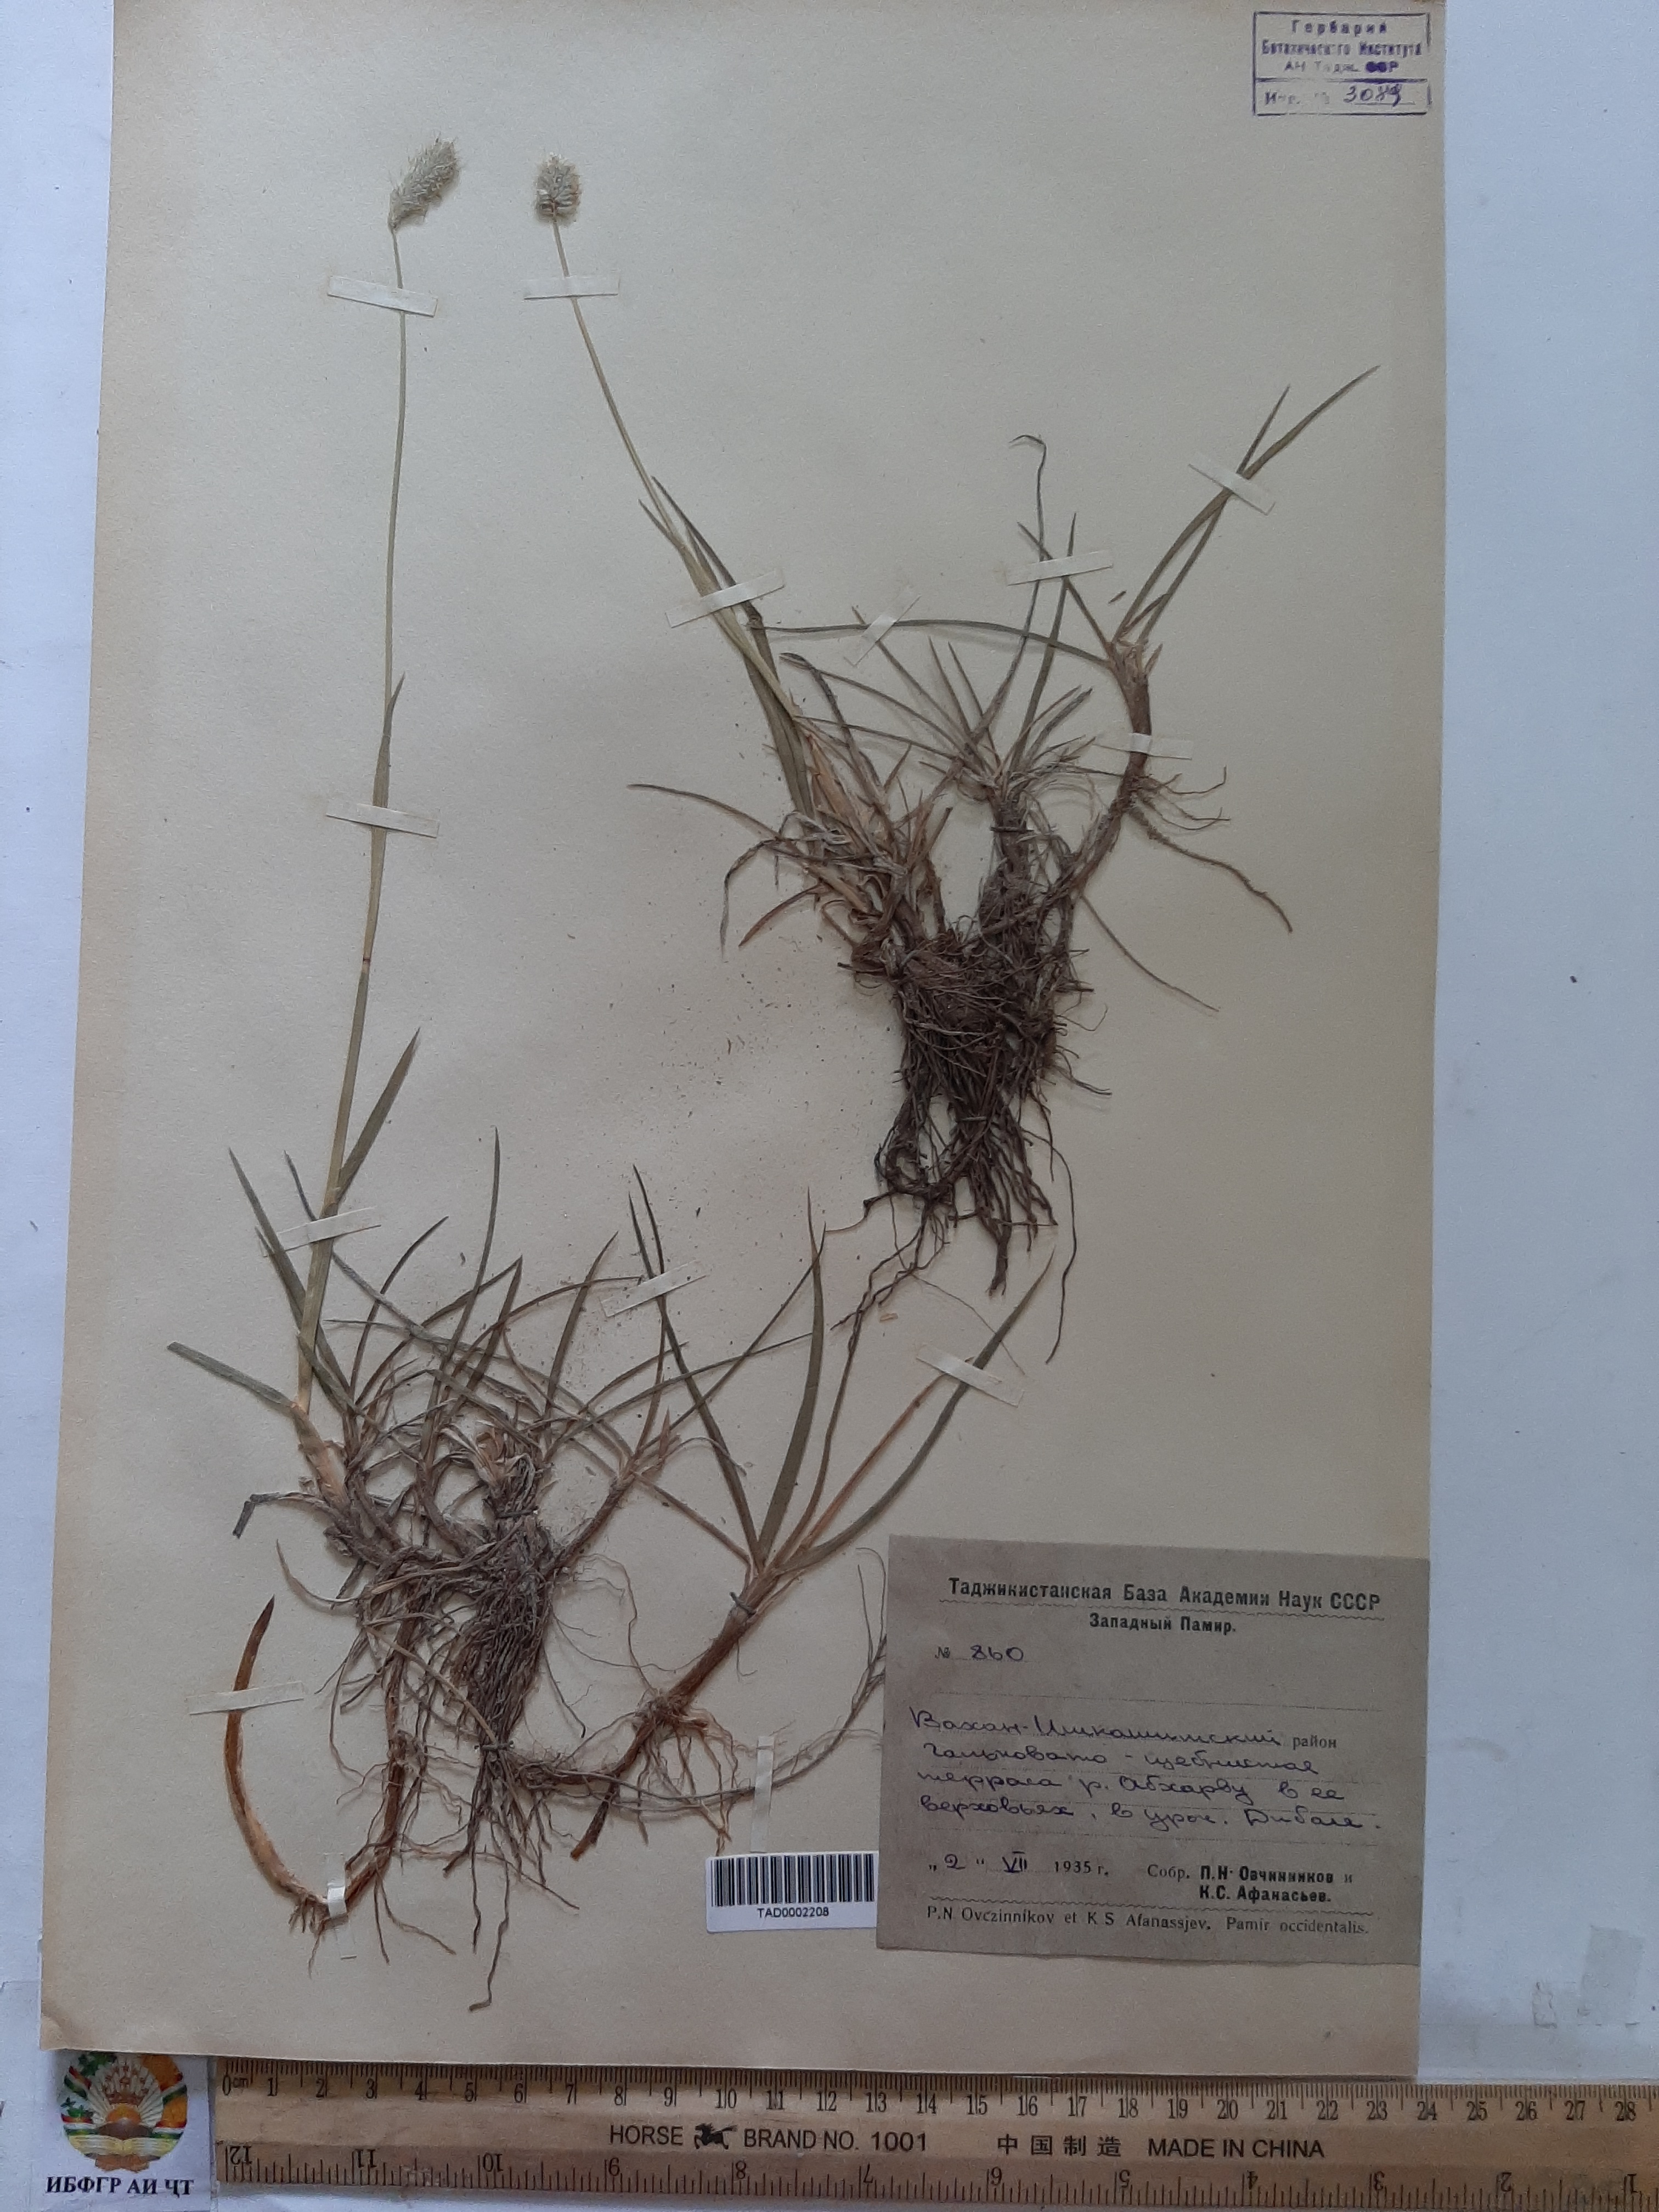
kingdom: Plantae
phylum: Tracheophyta
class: Liliopsida
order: Poales
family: Poaceae
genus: Phleum
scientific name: Phleum alpinum
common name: Alpine cat's-tail
